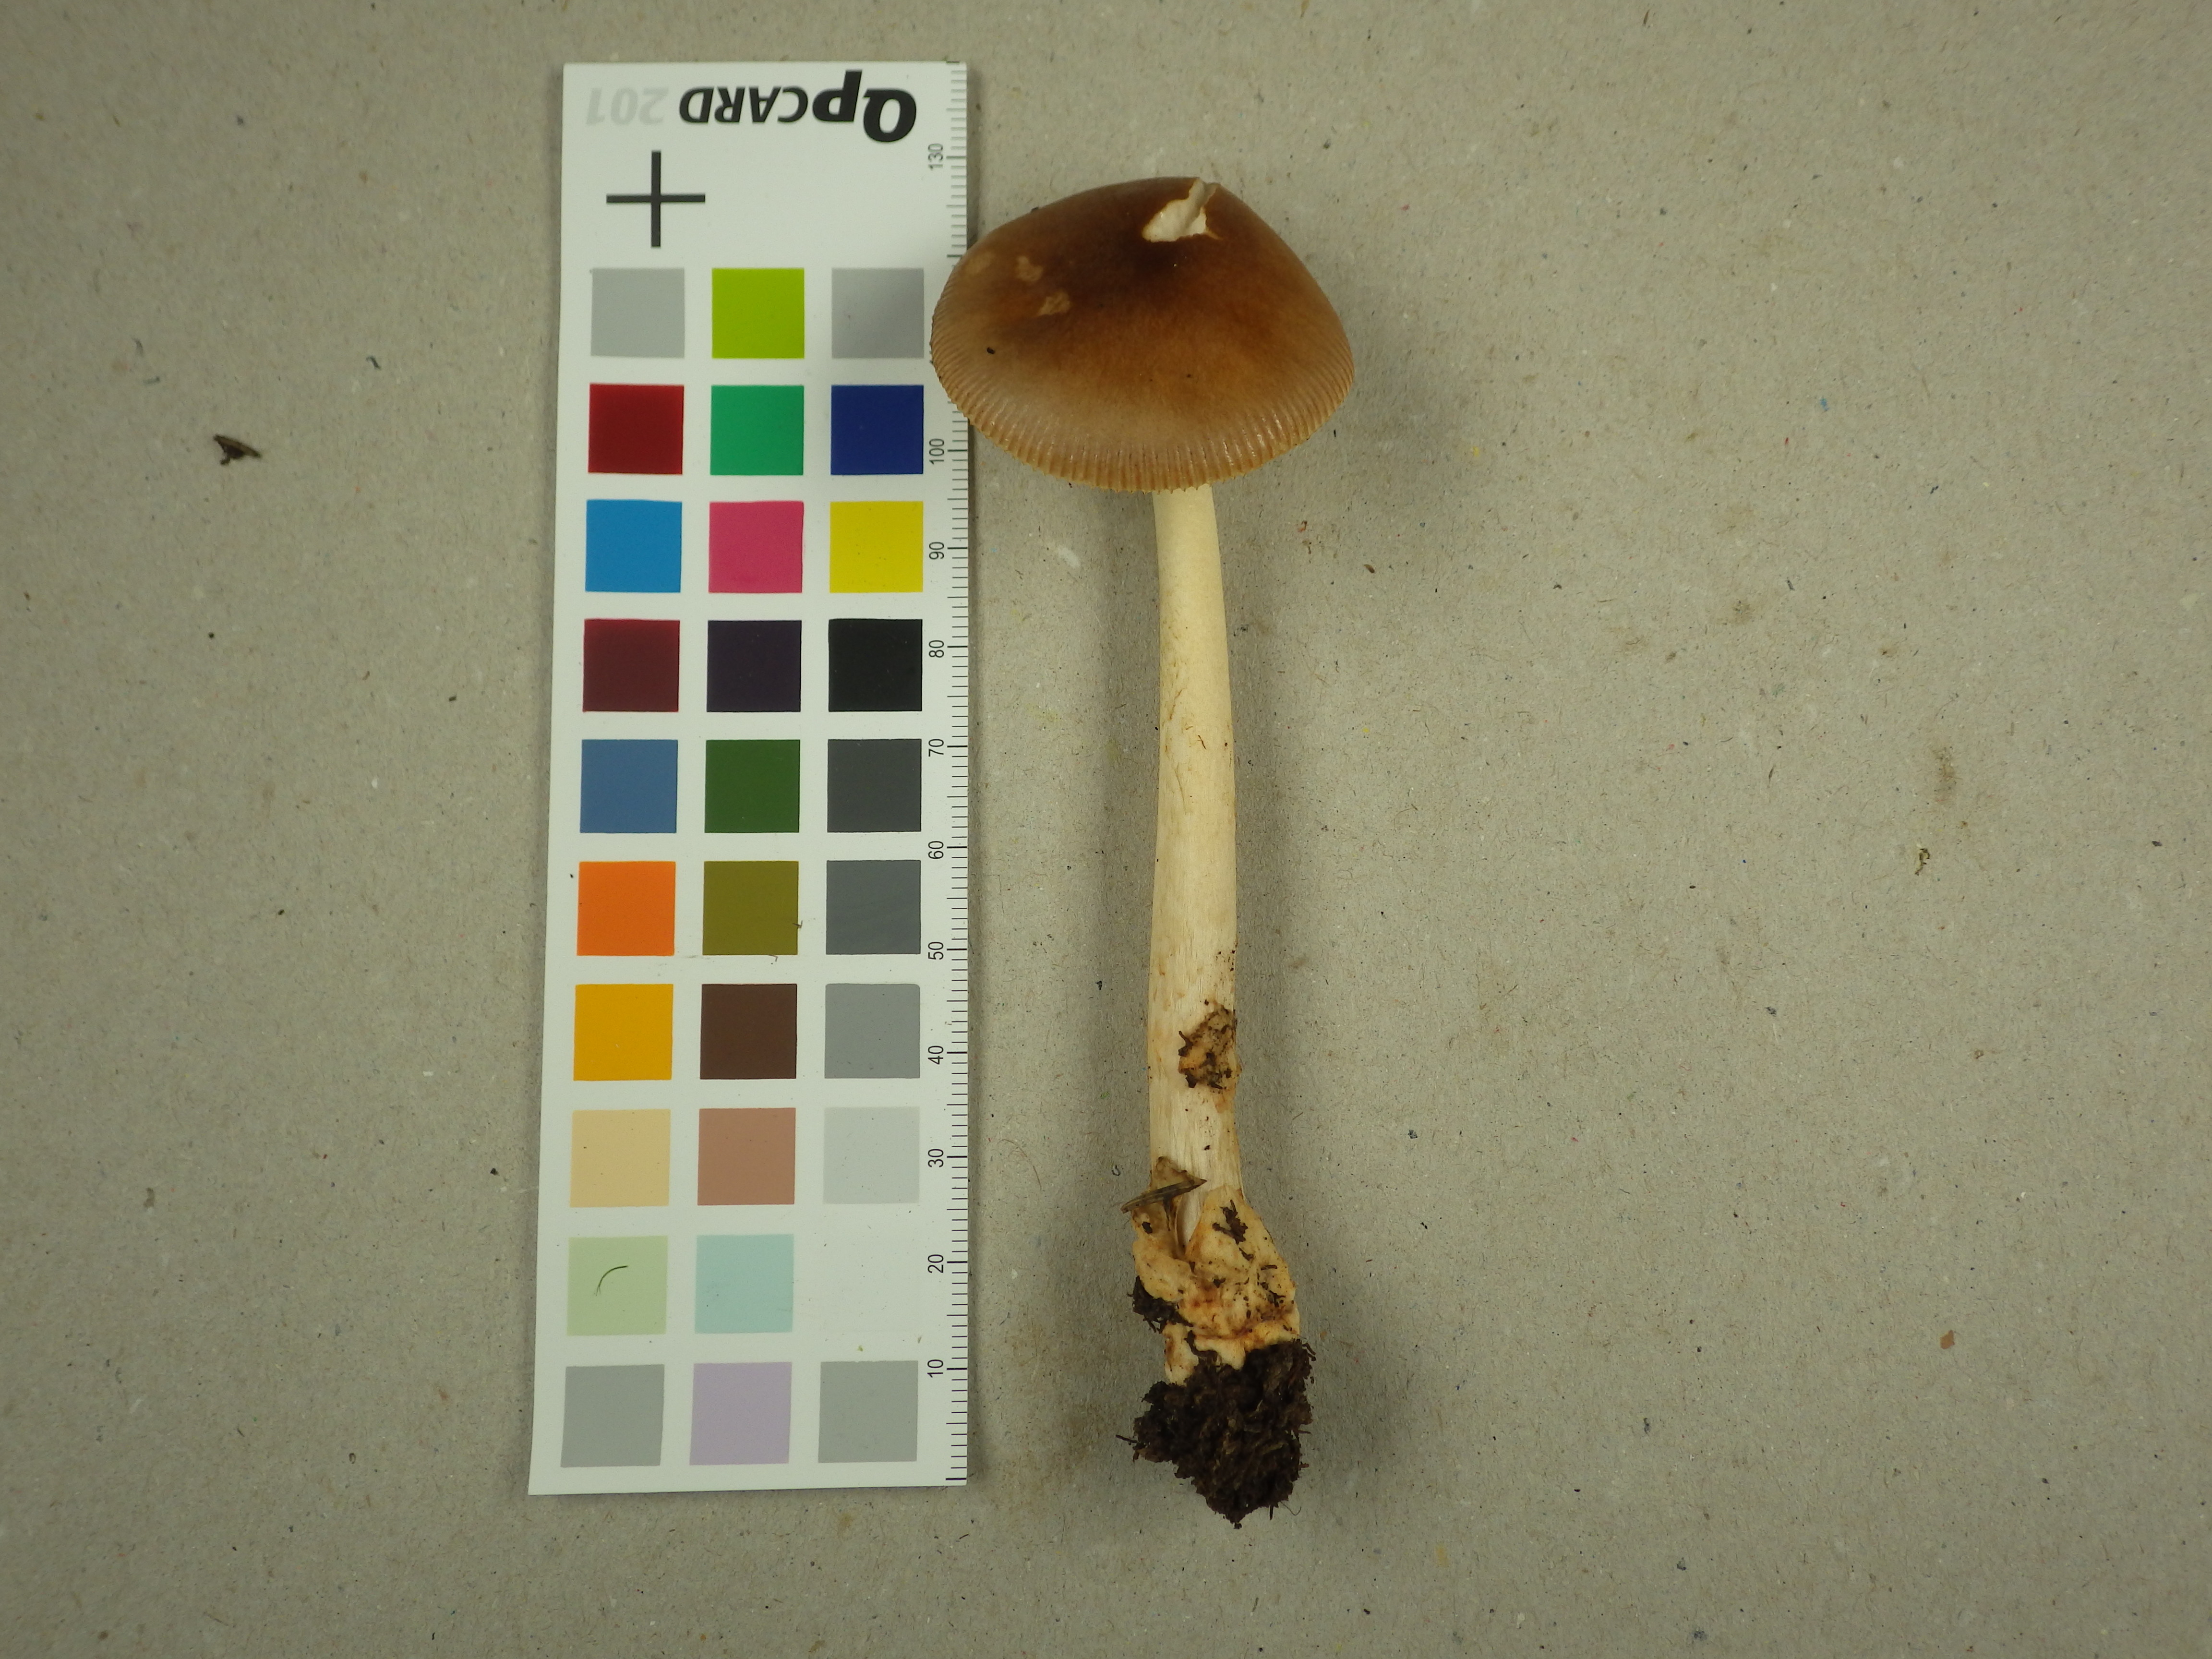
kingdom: Fungi
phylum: Basidiomycota
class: Agaricomycetes
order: Agaricales
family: Amanitaceae
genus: Amanita
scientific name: Amanita fulva
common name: Tawny grisette
